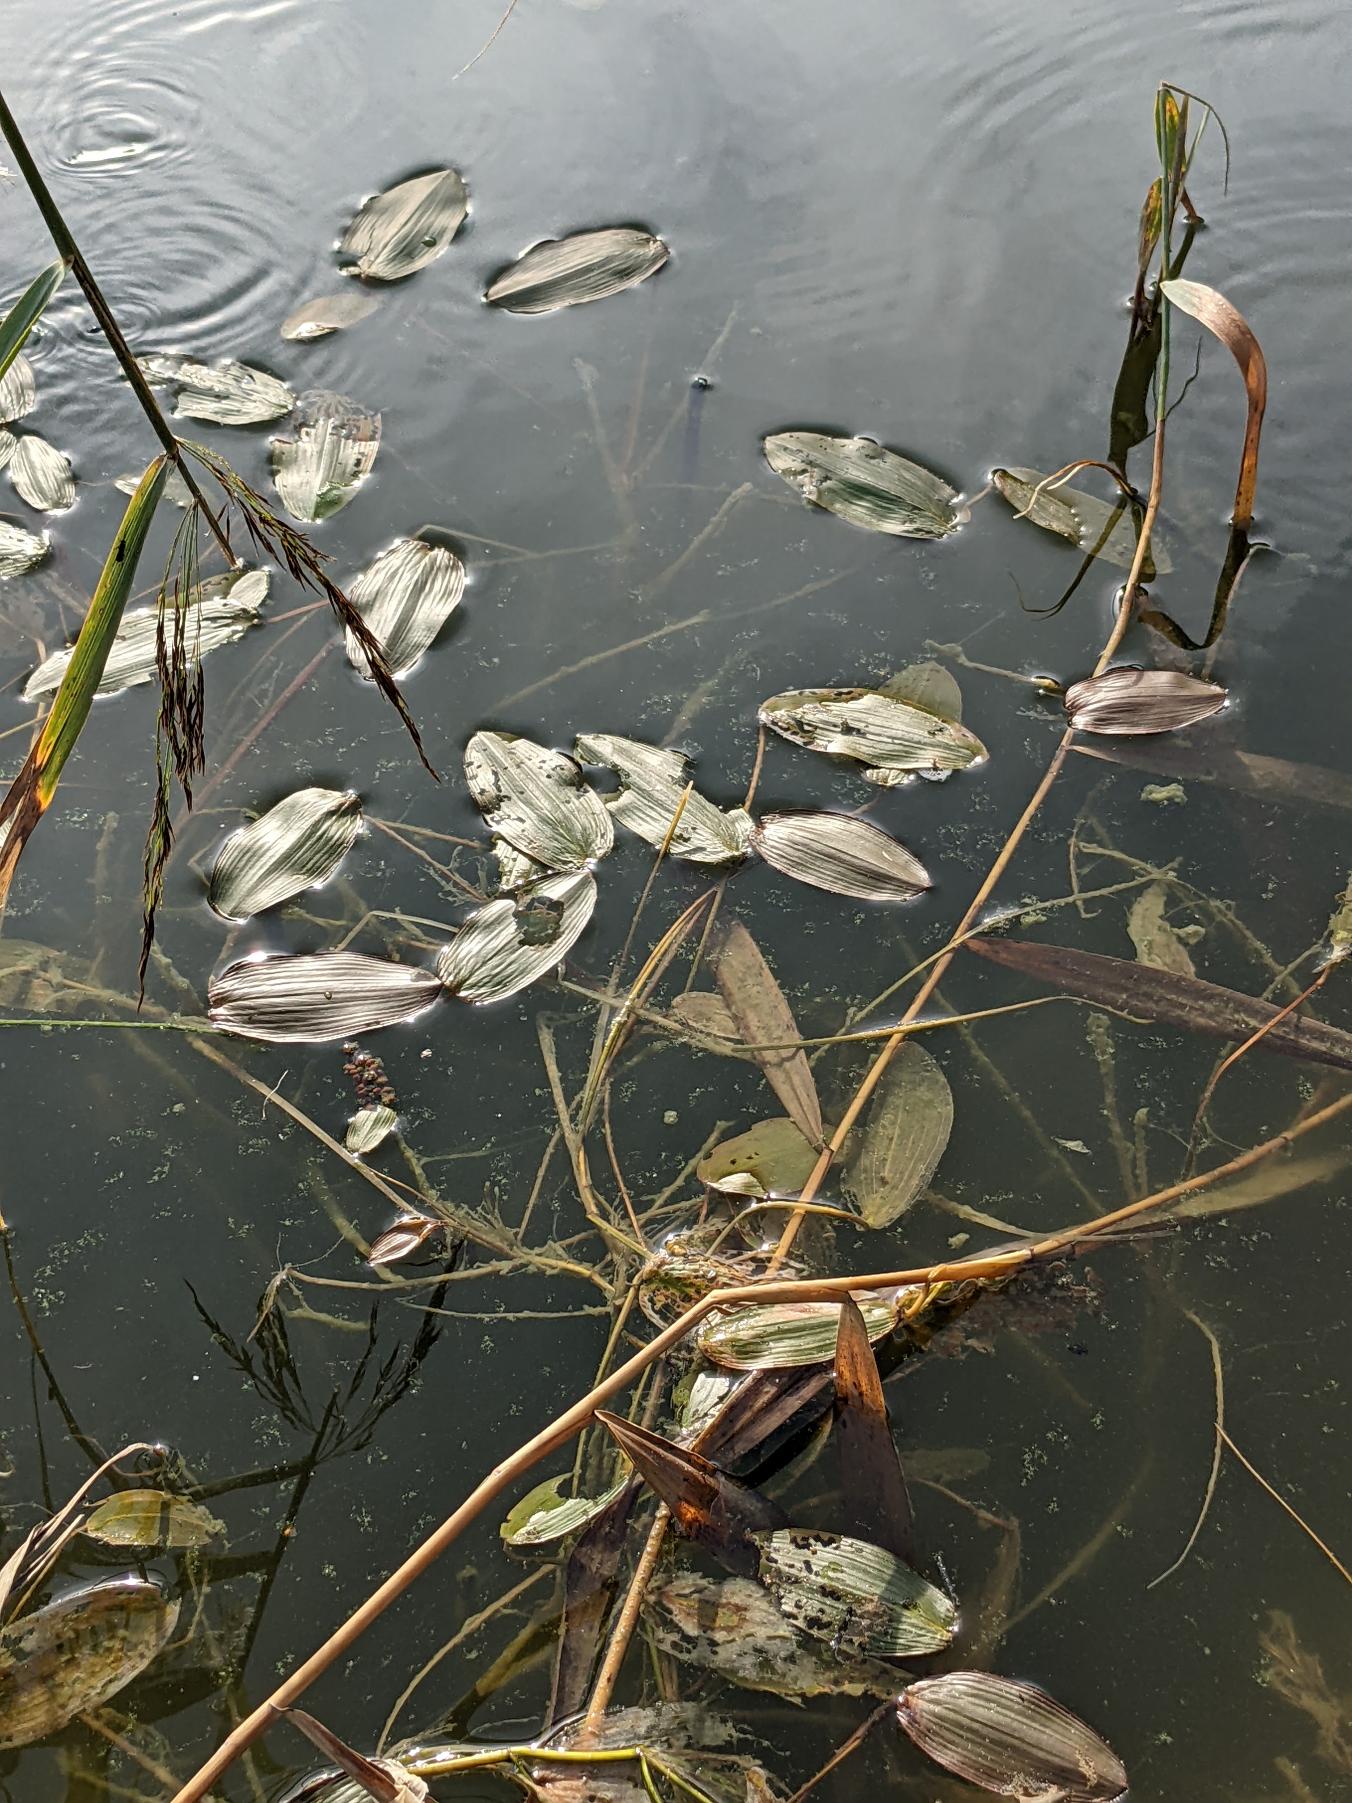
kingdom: Plantae
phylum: Tracheophyta
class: Liliopsida
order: Alismatales
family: Potamogetonaceae
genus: Potamogeton
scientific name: Potamogeton natans
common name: Svømmende vandaks
